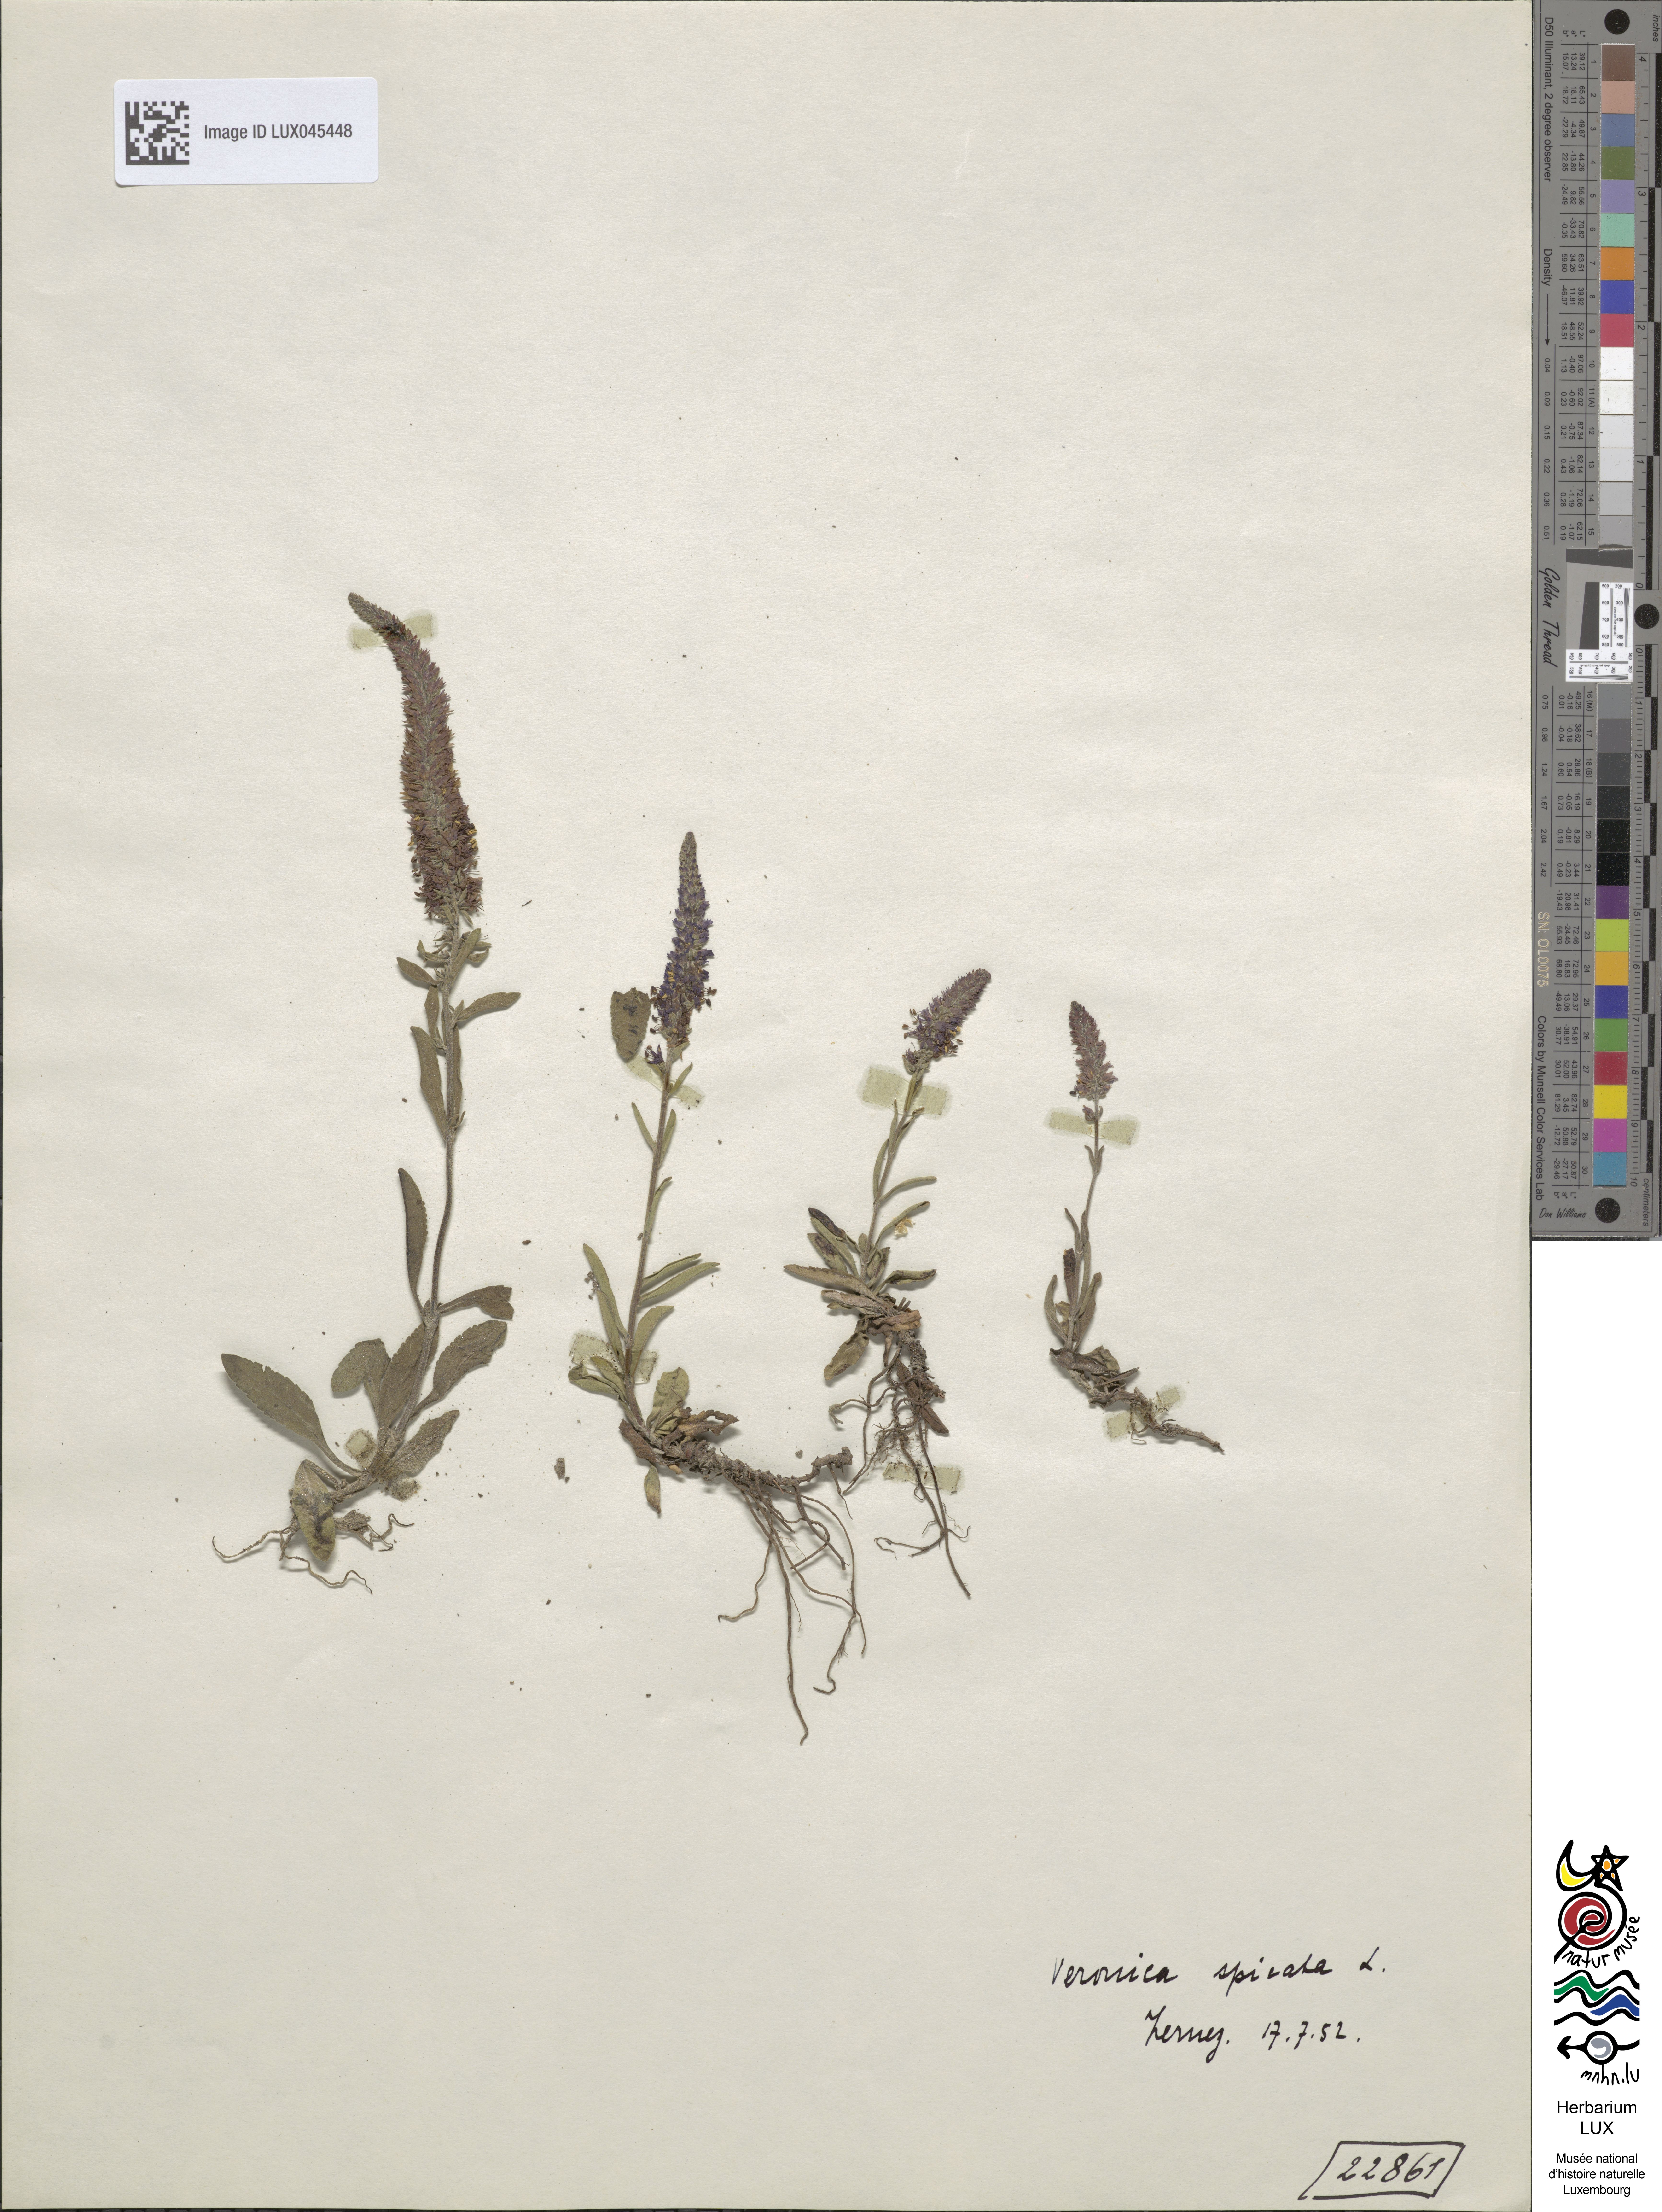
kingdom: Plantae
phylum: Tracheophyta
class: Magnoliopsida
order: Lamiales
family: Plantaginaceae
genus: Veronica
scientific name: Veronica spicata
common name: Spiked speedwell
